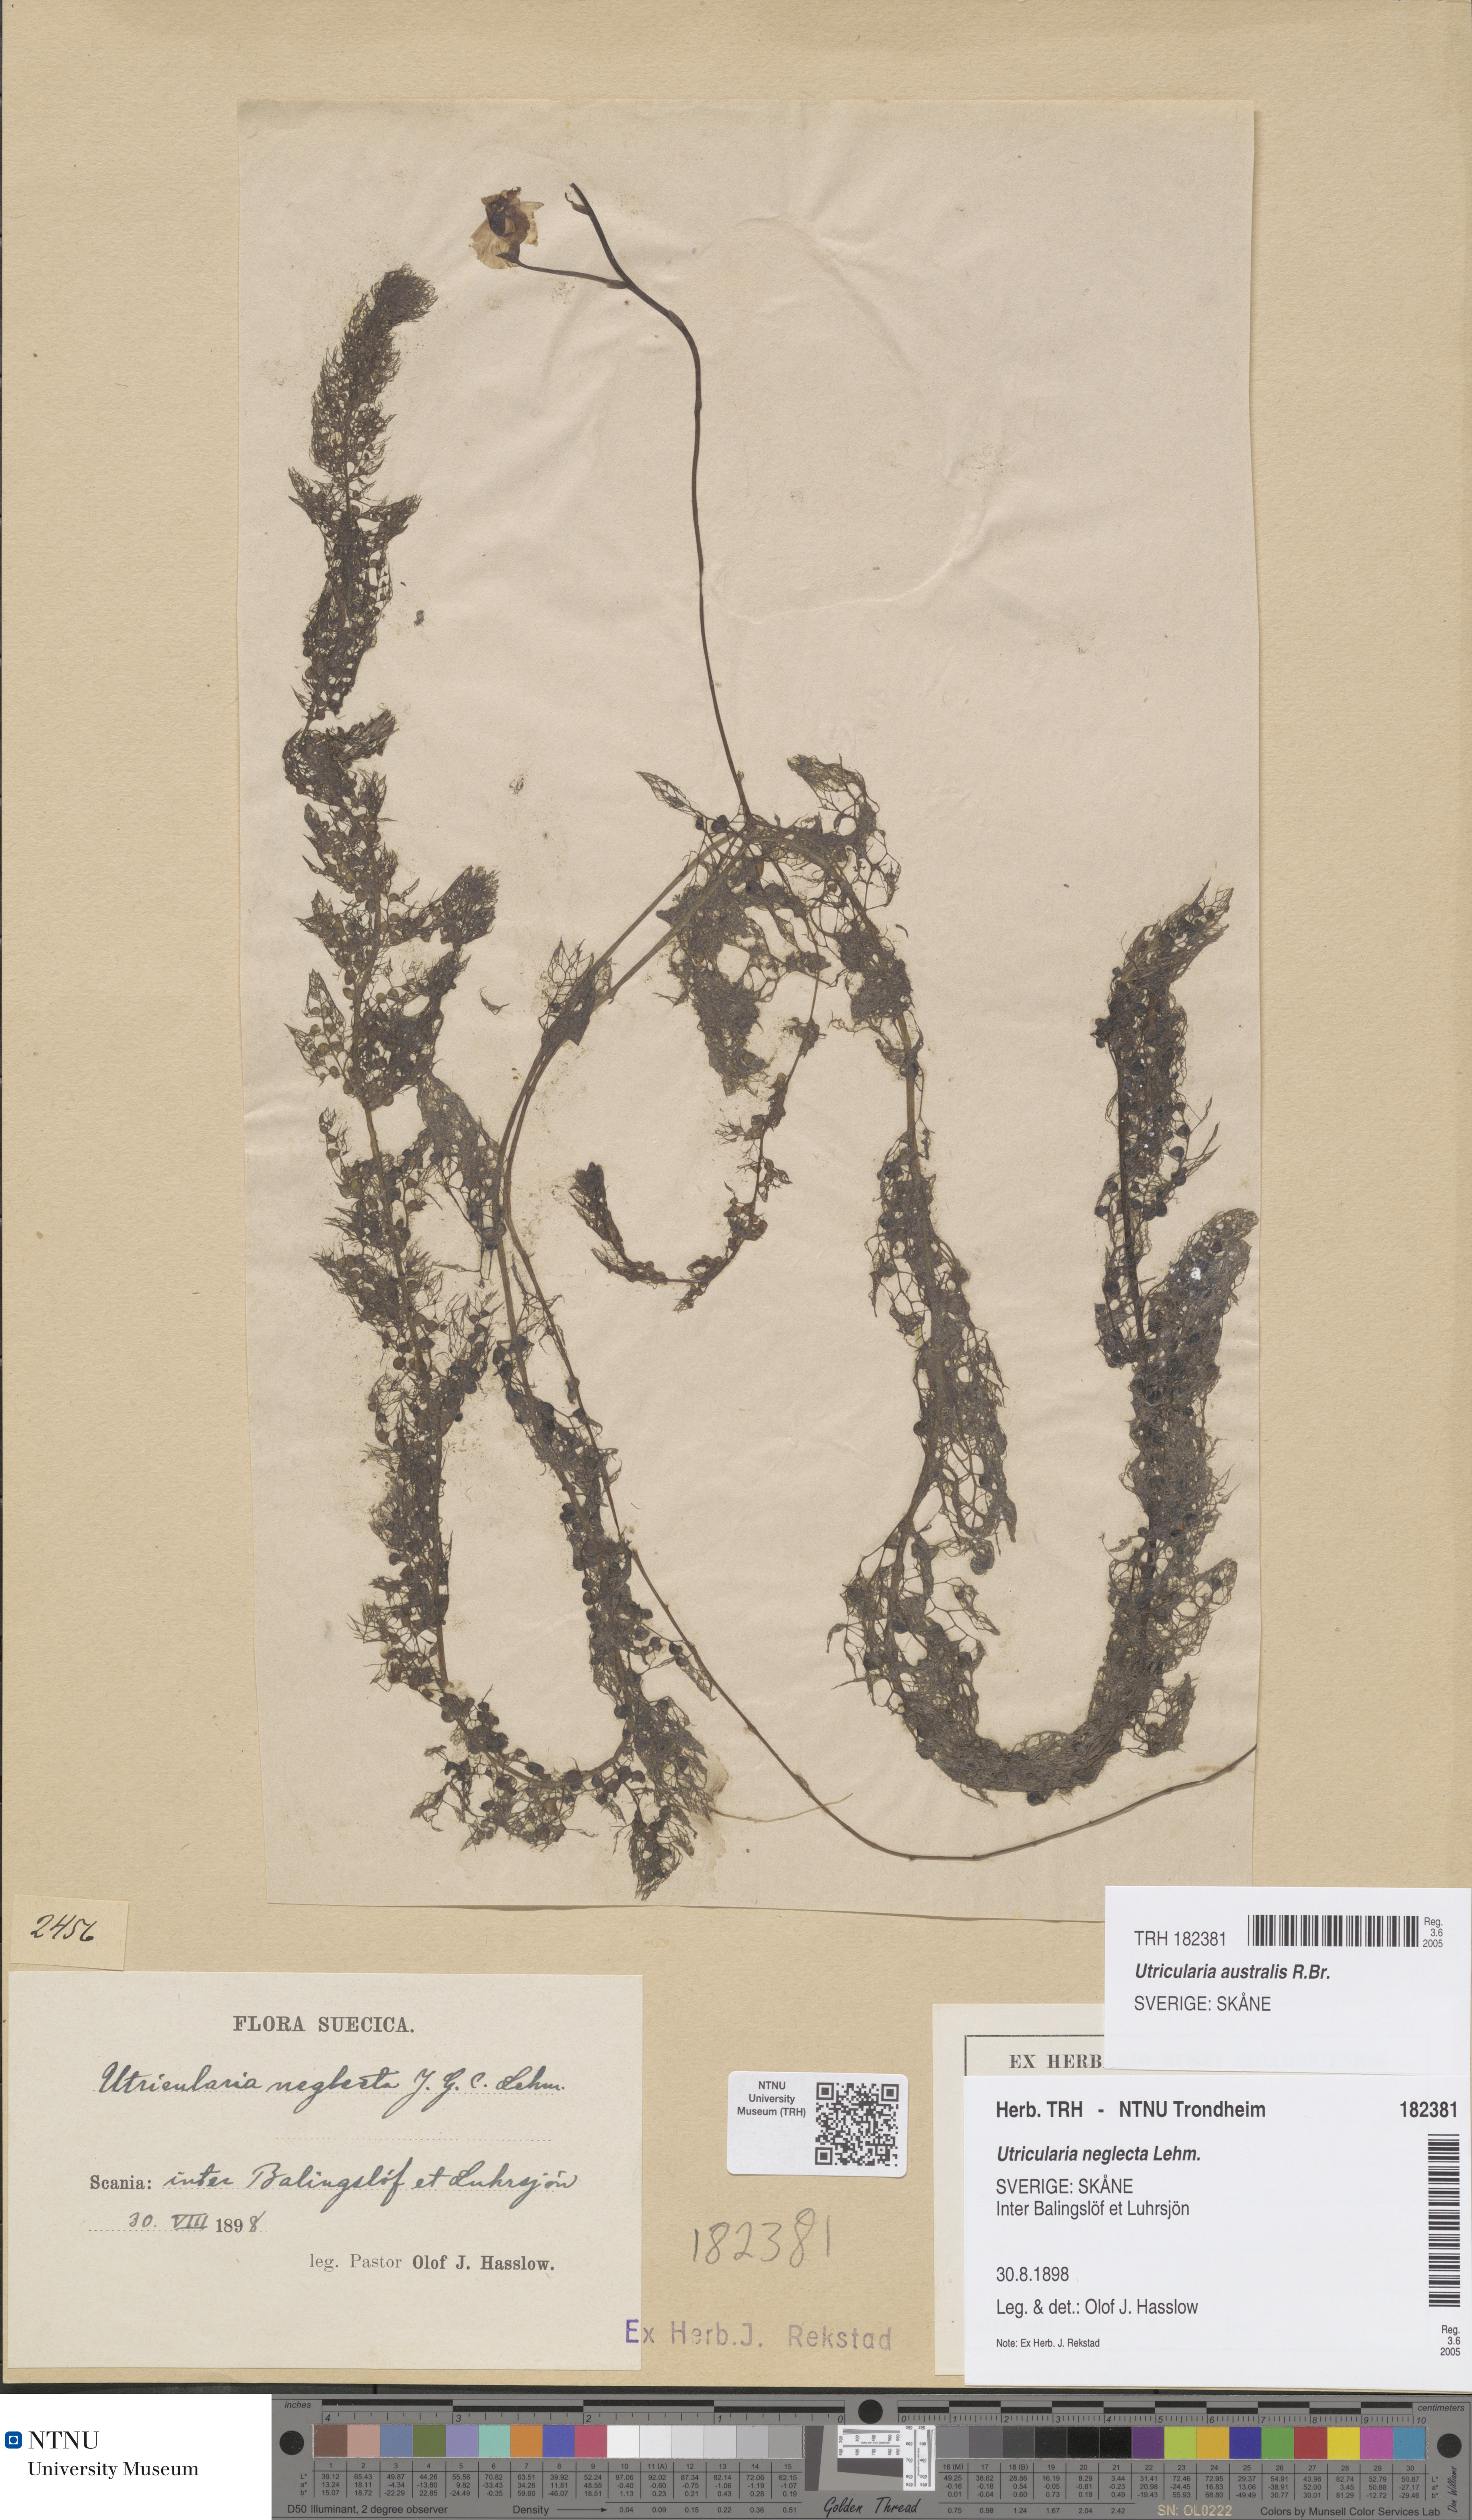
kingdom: Plantae
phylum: Tracheophyta
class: Magnoliopsida
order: Lamiales
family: Lentibulariaceae
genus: Utricularia
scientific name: Utricularia australis
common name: Bladderwort
